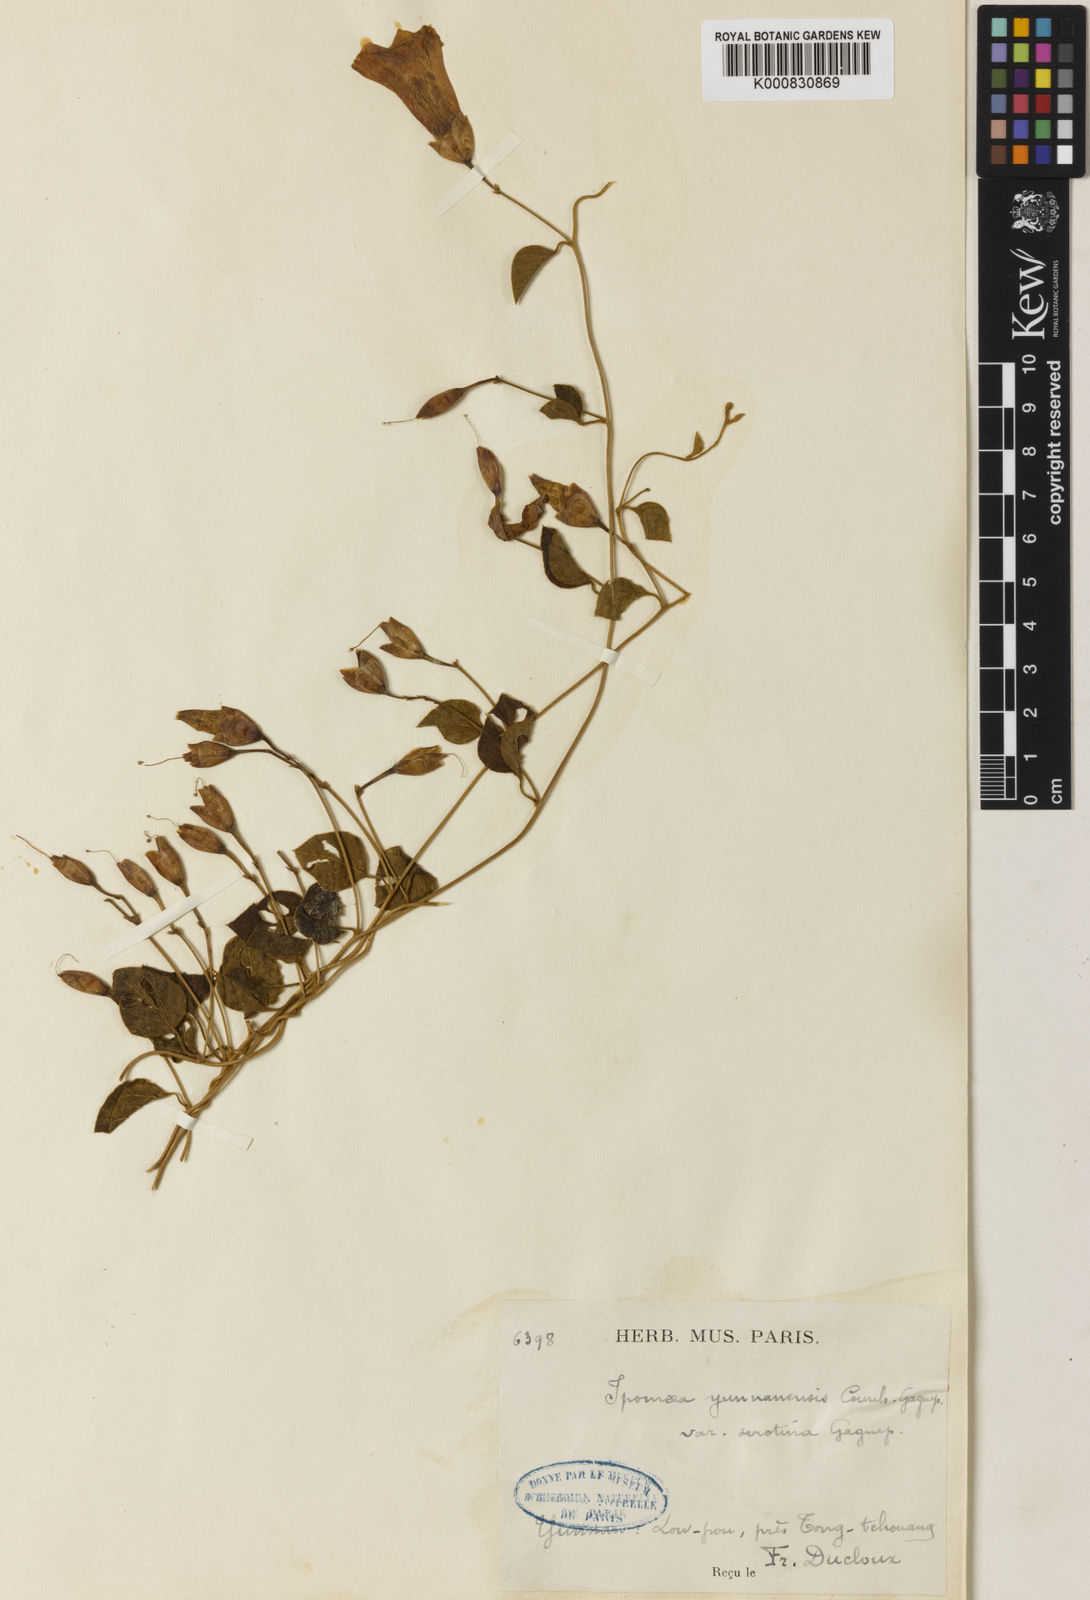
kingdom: Plantae
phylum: Tracheophyta
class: Magnoliopsida
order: Solanales
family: Convolvulaceae
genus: Merremia
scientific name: Merremia yunnanensis
